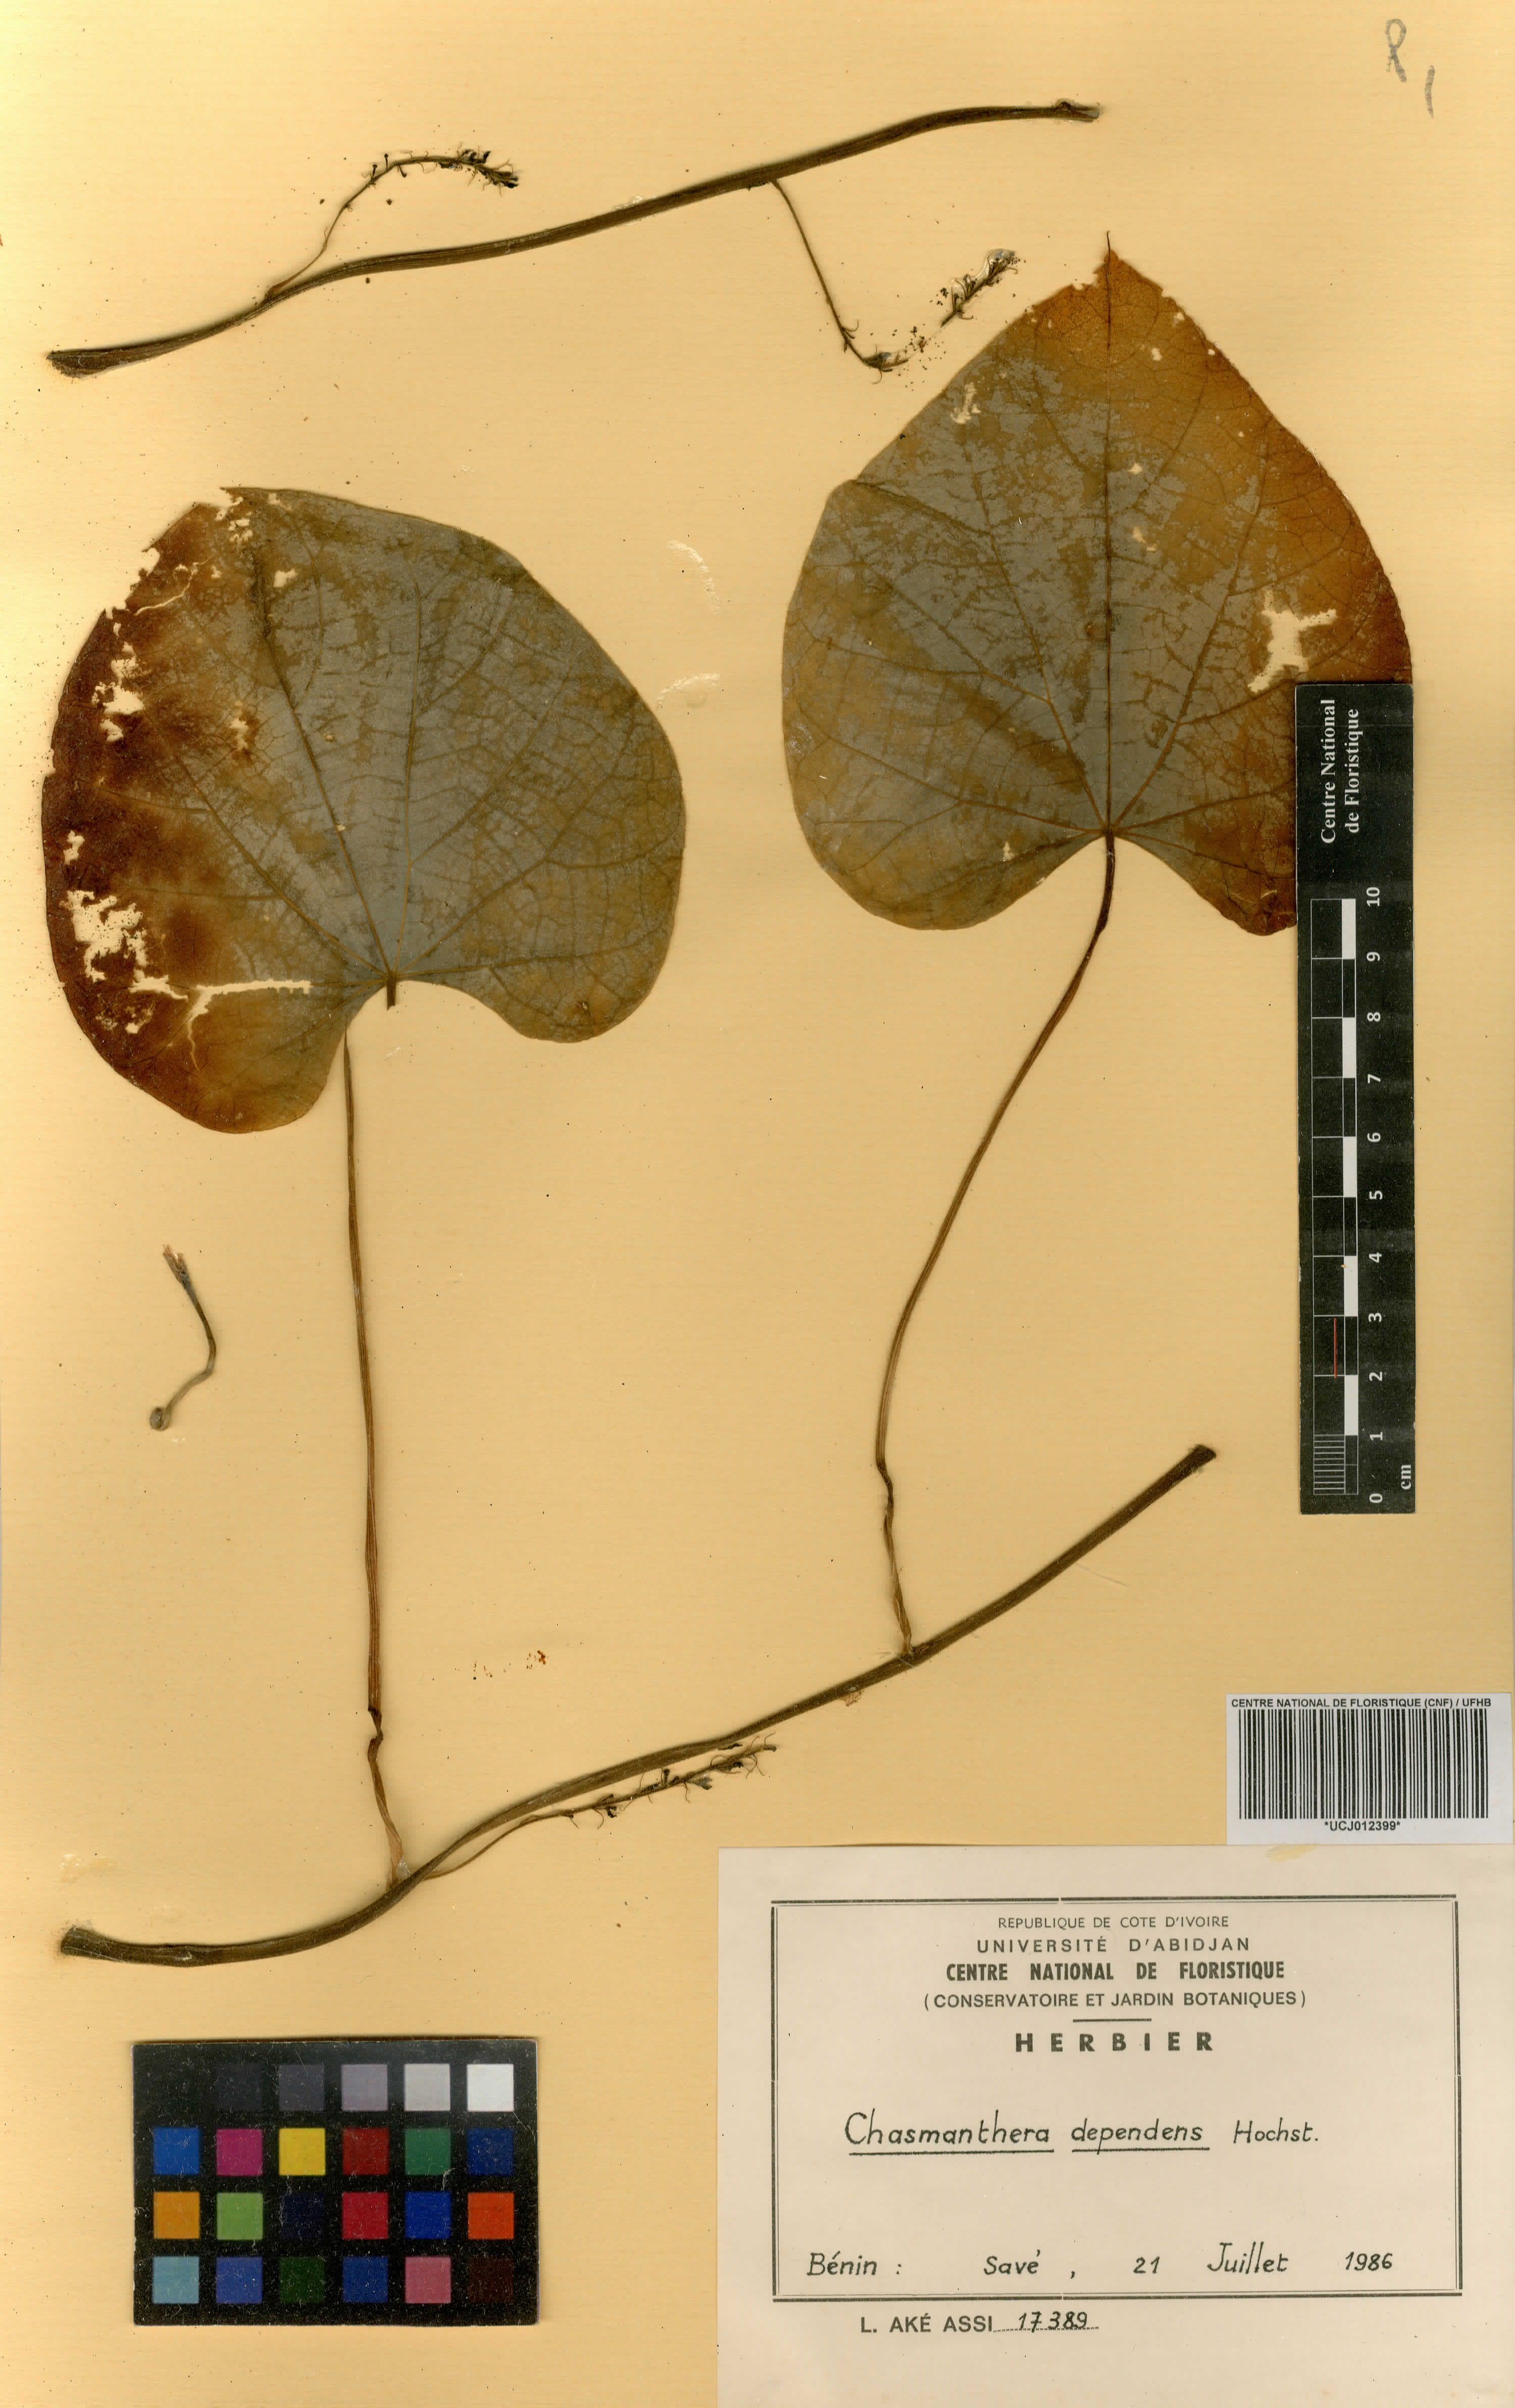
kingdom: Plantae
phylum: Tracheophyta
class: Magnoliopsida
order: Ranunculales
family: Menispermaceae
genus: Chasmanthera
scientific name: Chasmanthera dependens
